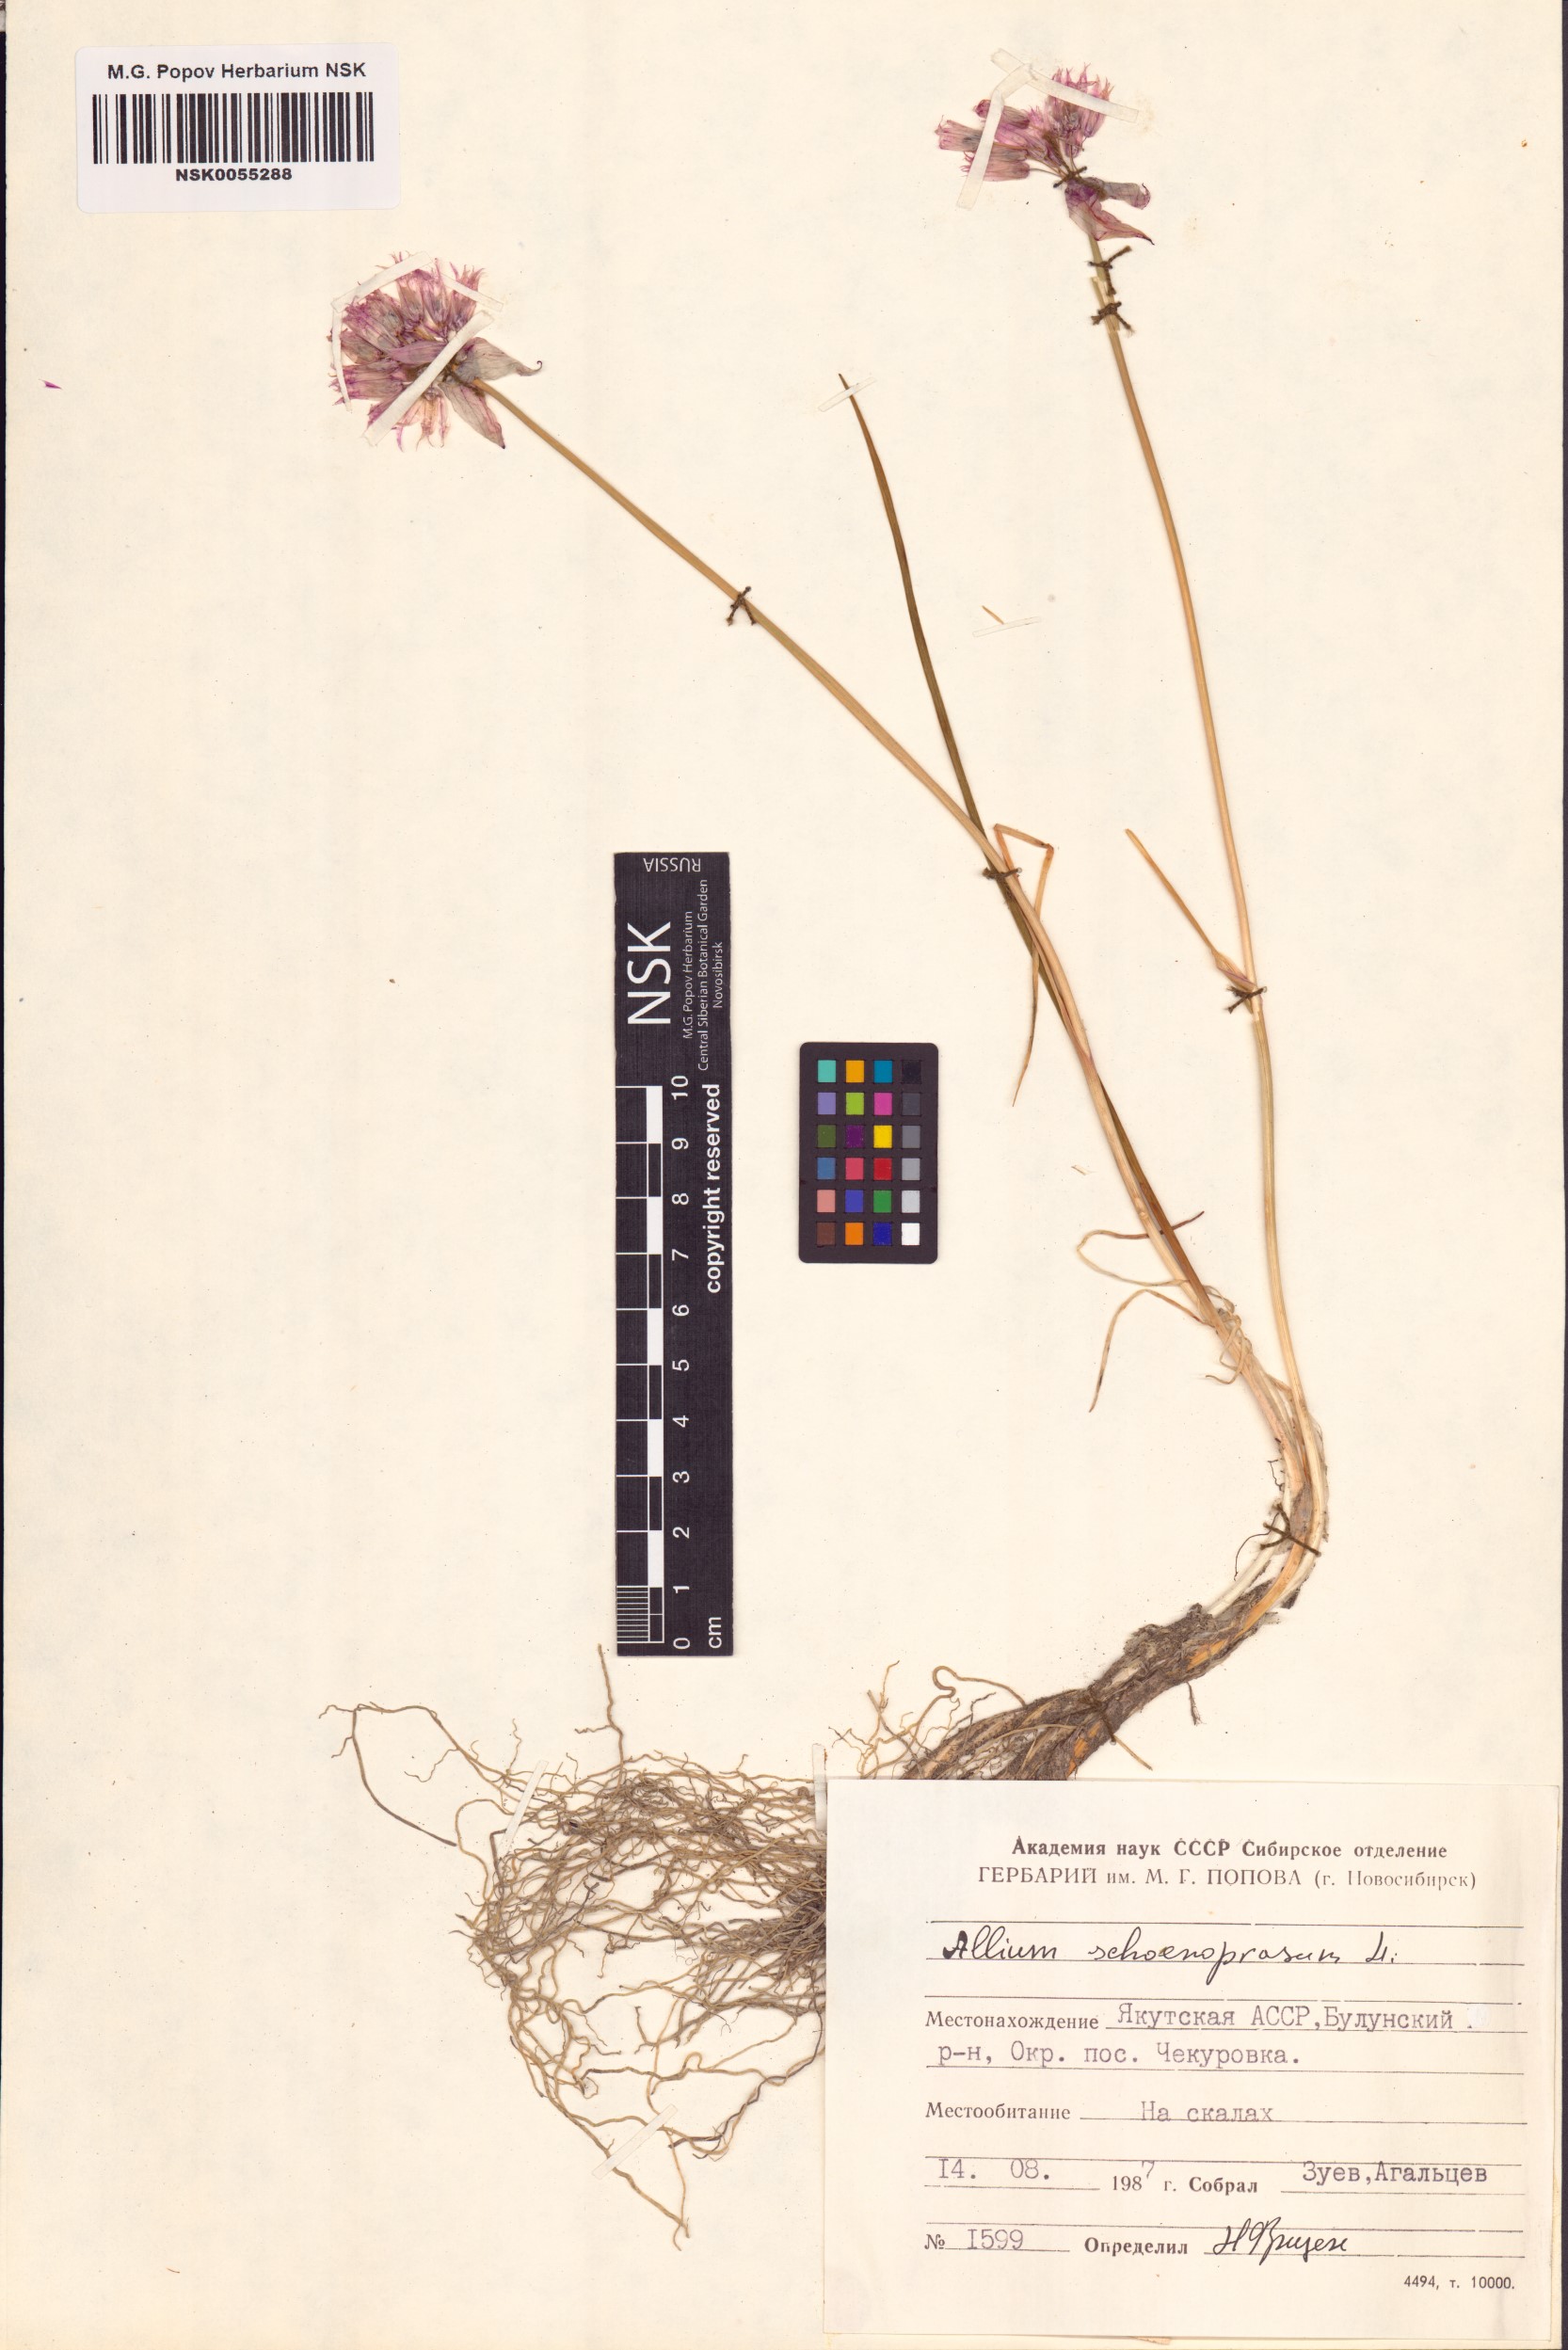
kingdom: Plantae
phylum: Tracheophyta
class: Liliopsida
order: Asparagales
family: Amaryllidaceae
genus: Allium
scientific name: Allium schoenoprasum
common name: Chives
